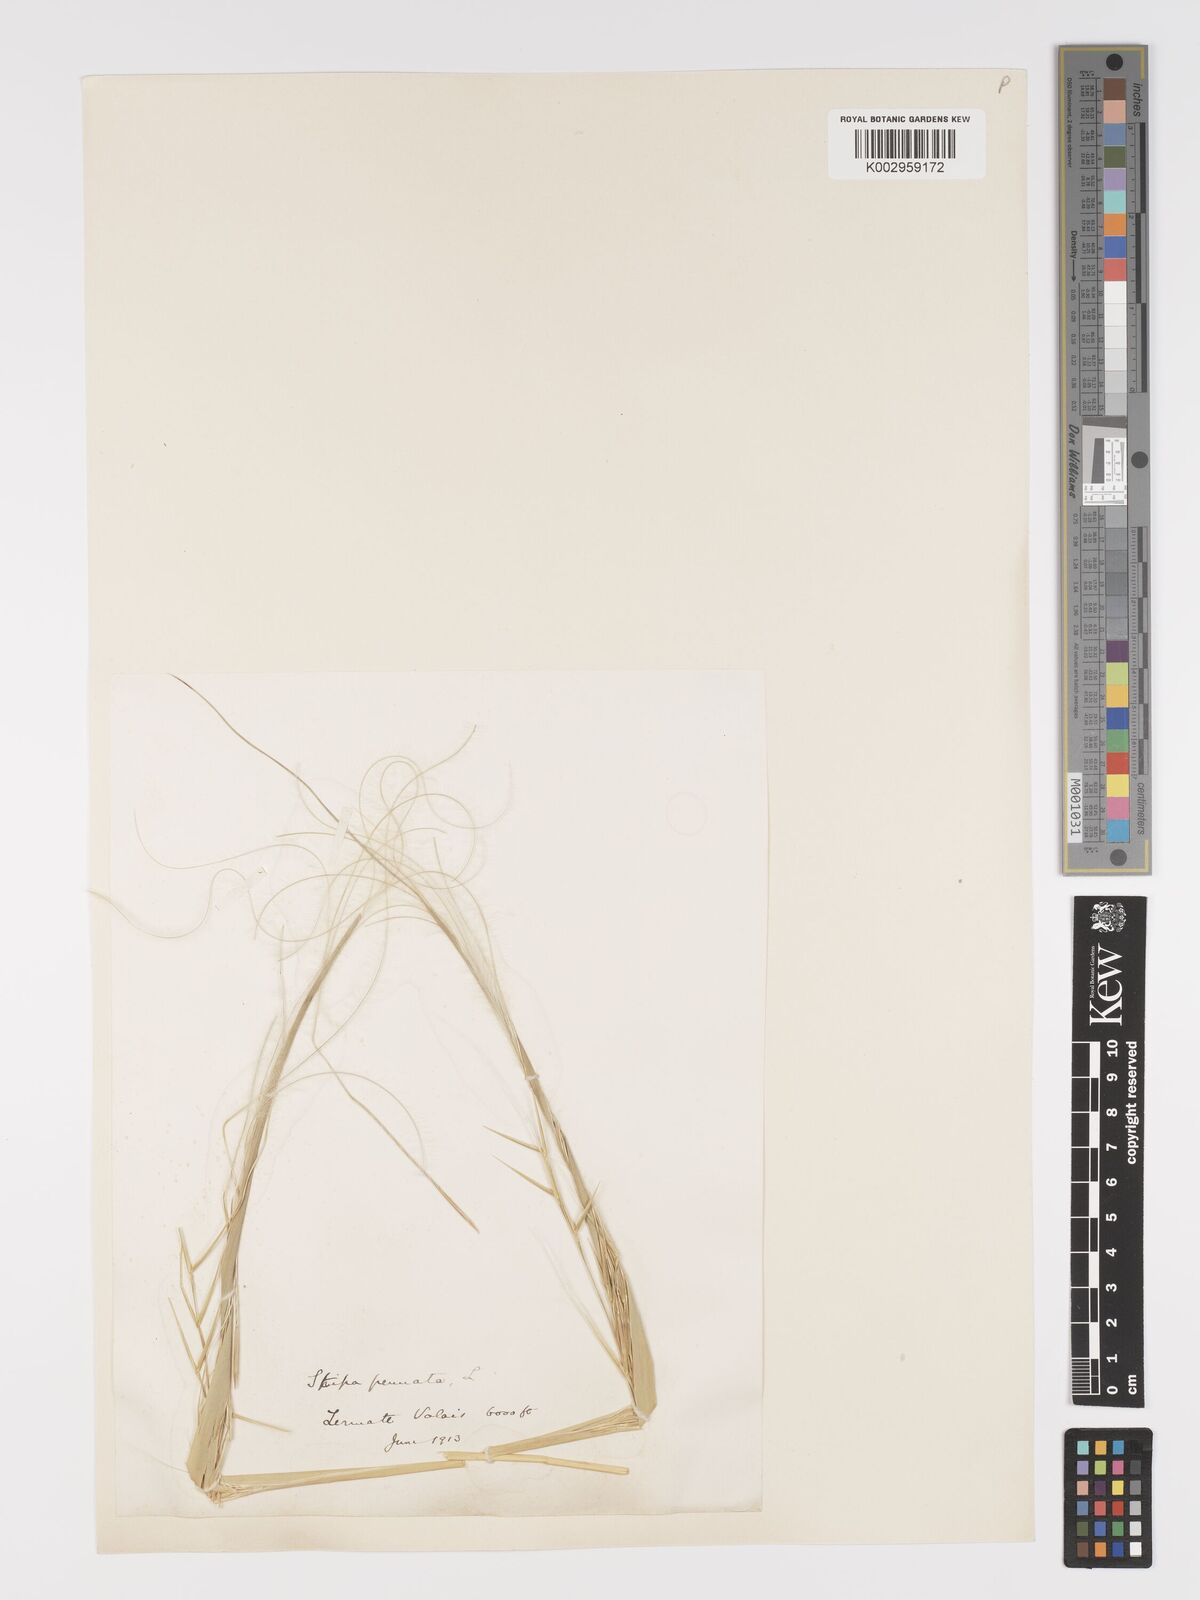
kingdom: Plantae
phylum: Tracheophyta
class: Liliopsida
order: Poales
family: Poaceae
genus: Stipa
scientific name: Stipa pennata
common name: European feather grass
